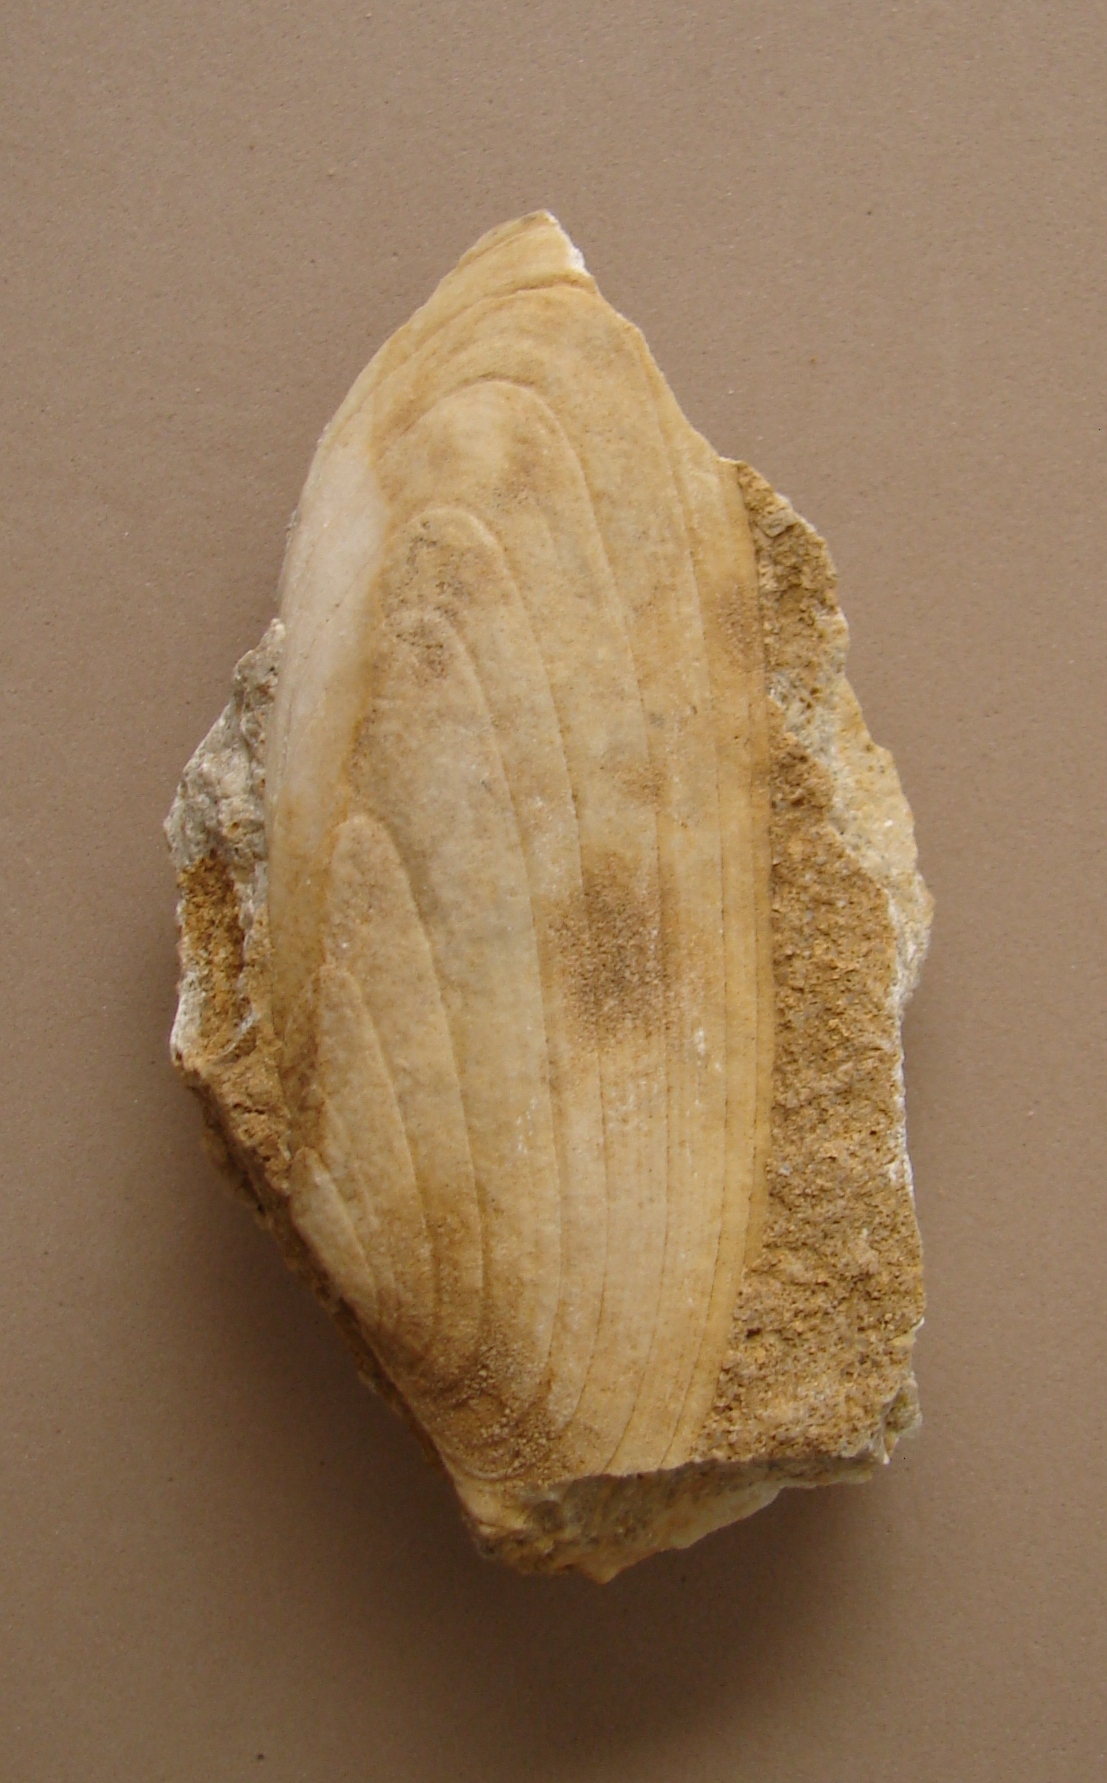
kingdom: Animalia
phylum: Mollusca
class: Bivalvia
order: Carditida
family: Cardiniidae
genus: Cardinia
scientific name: Cardinia
